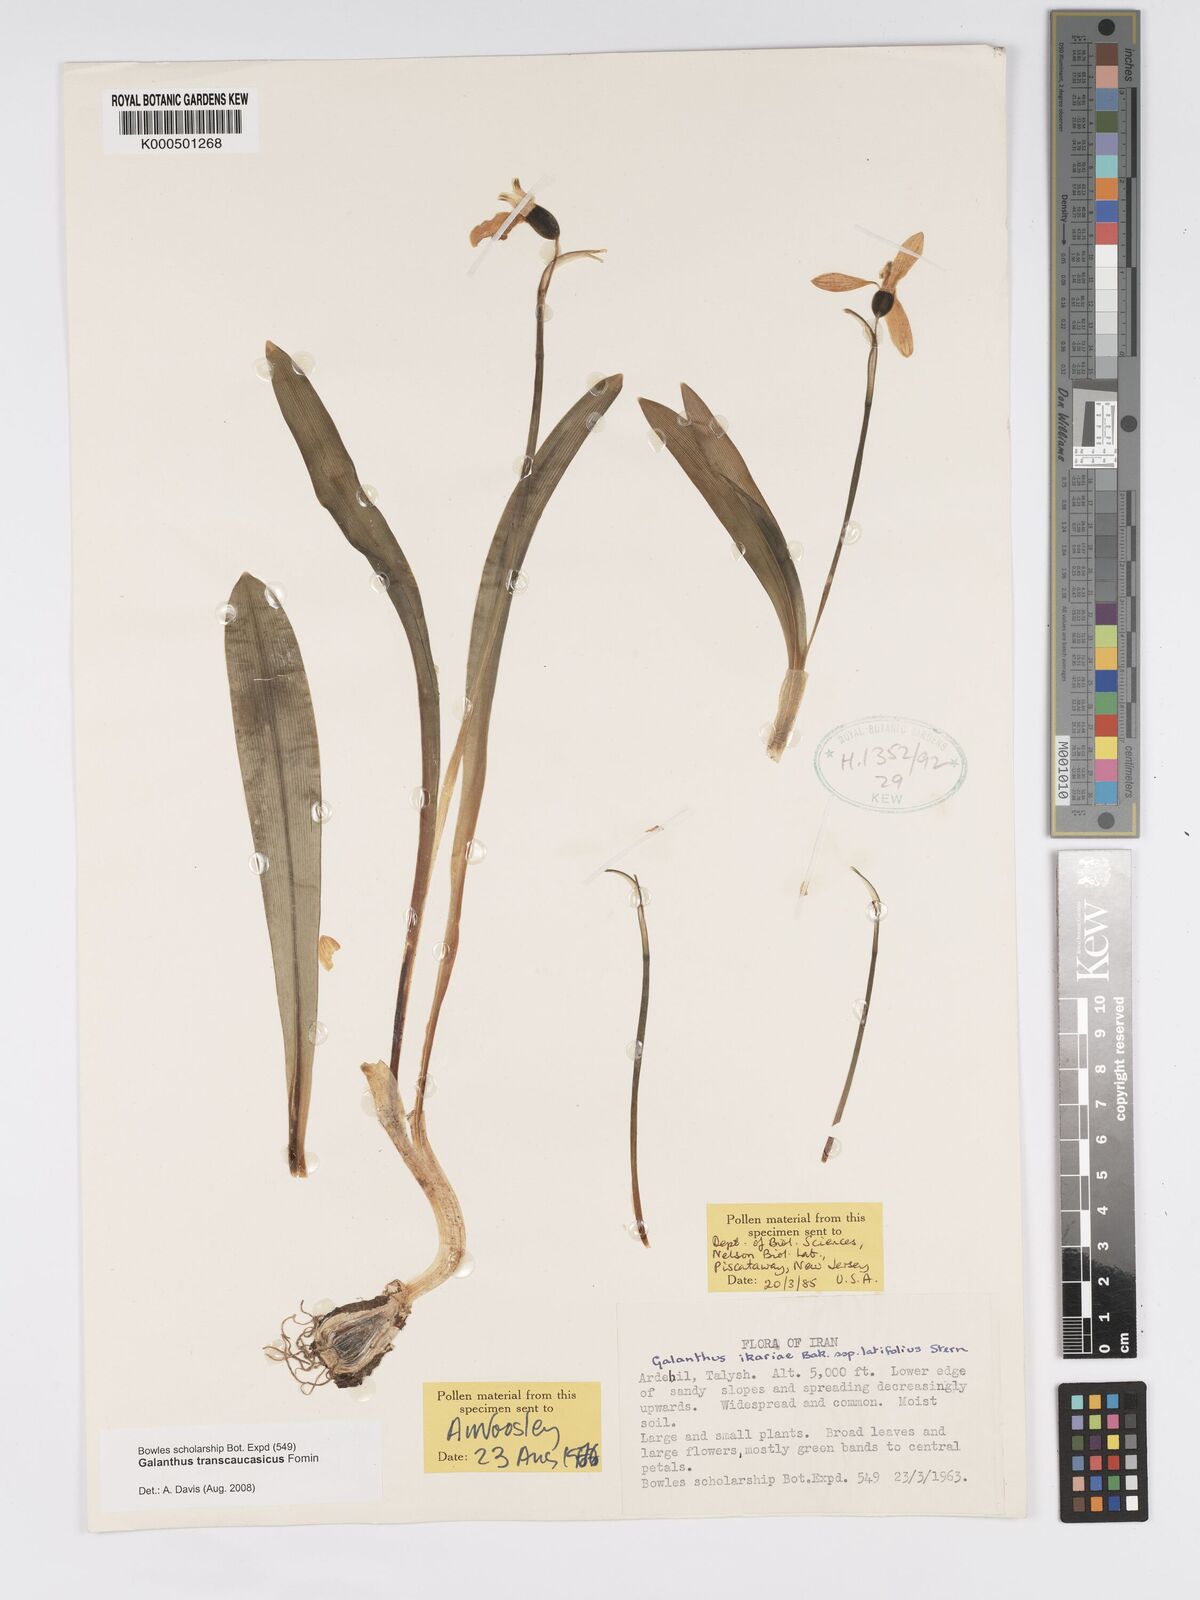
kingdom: Plantae
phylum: Tracheophyta
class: Liliopsida
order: Asparagales
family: Amaryllidaceae
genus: Galanthus
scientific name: Galanthus transcaucasicus
